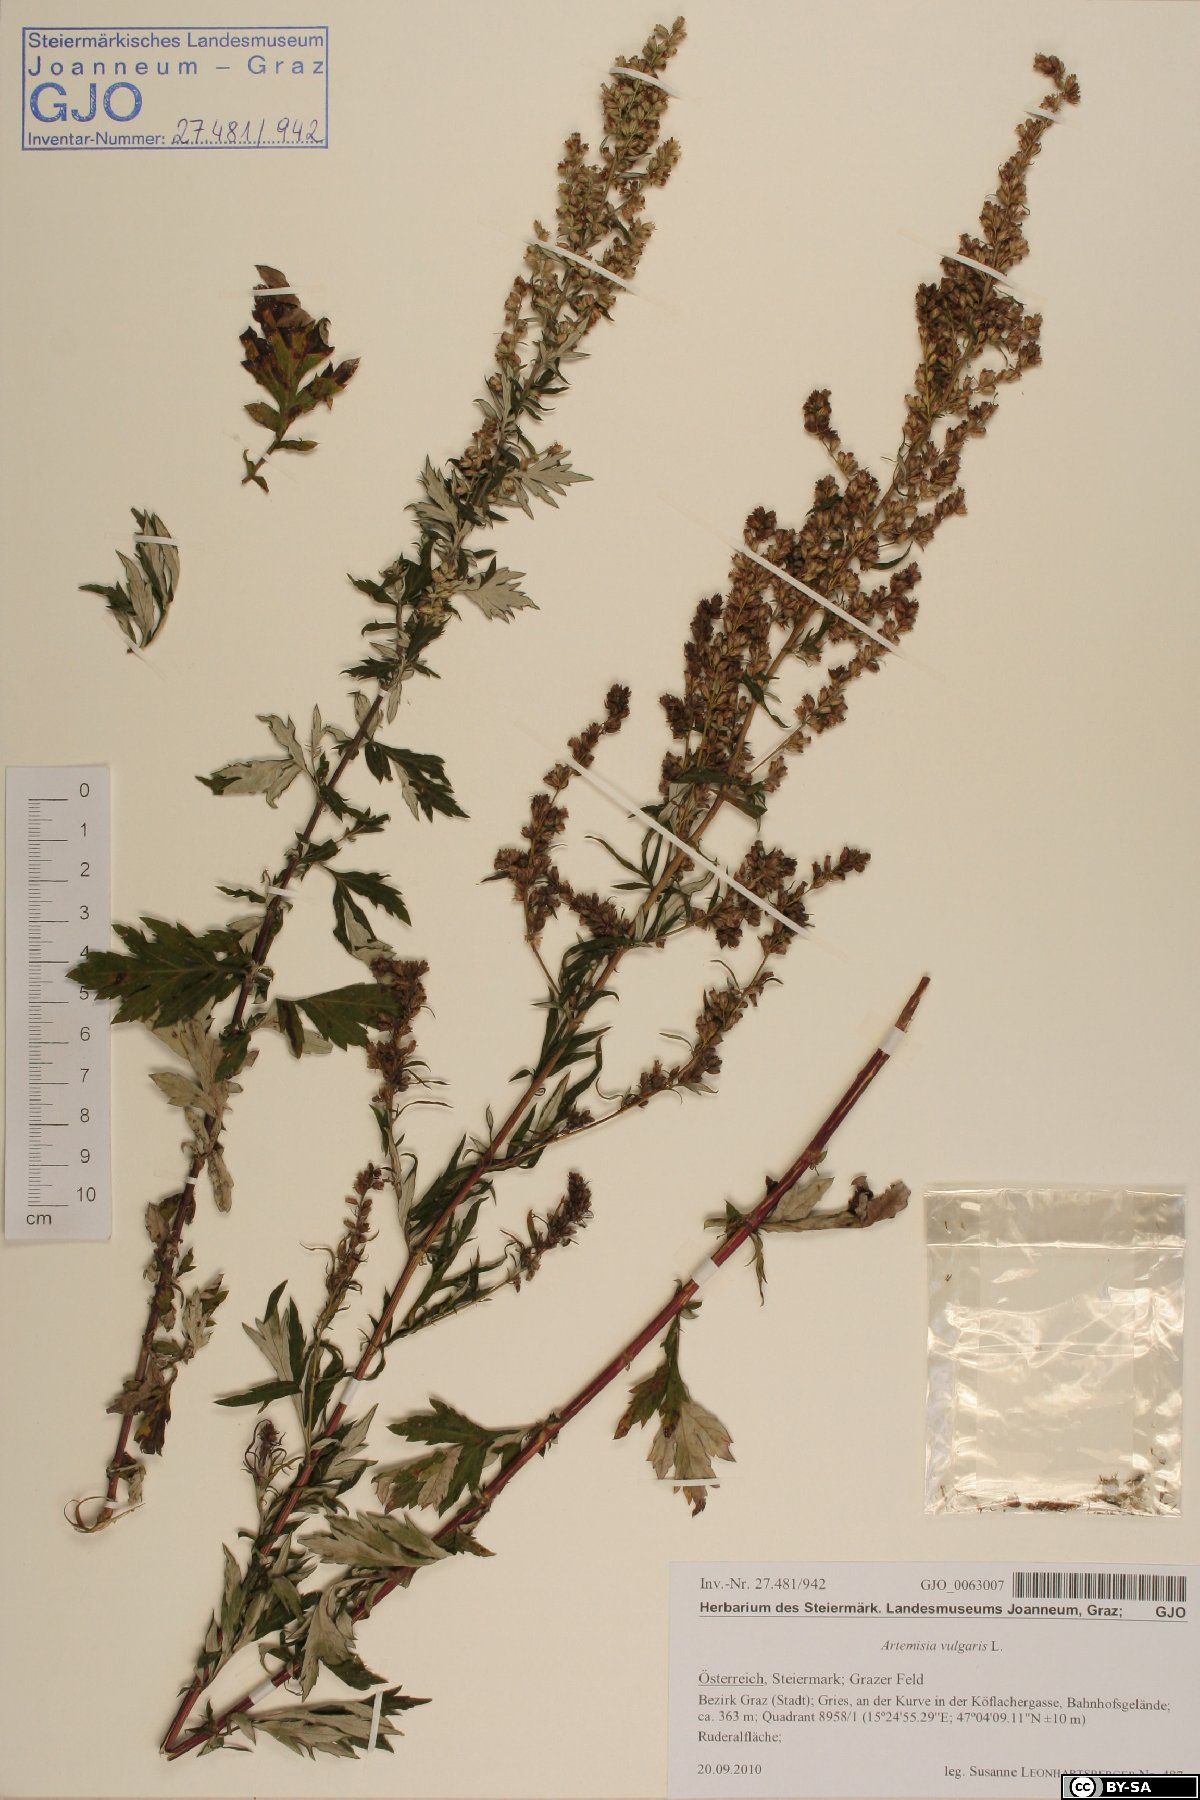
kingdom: Plantae
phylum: Tracheophyta
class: Magnoliopsida
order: Asterales
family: Asteraceae
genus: Artemisia
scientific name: Artemisia vulgaris
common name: Mugwort
